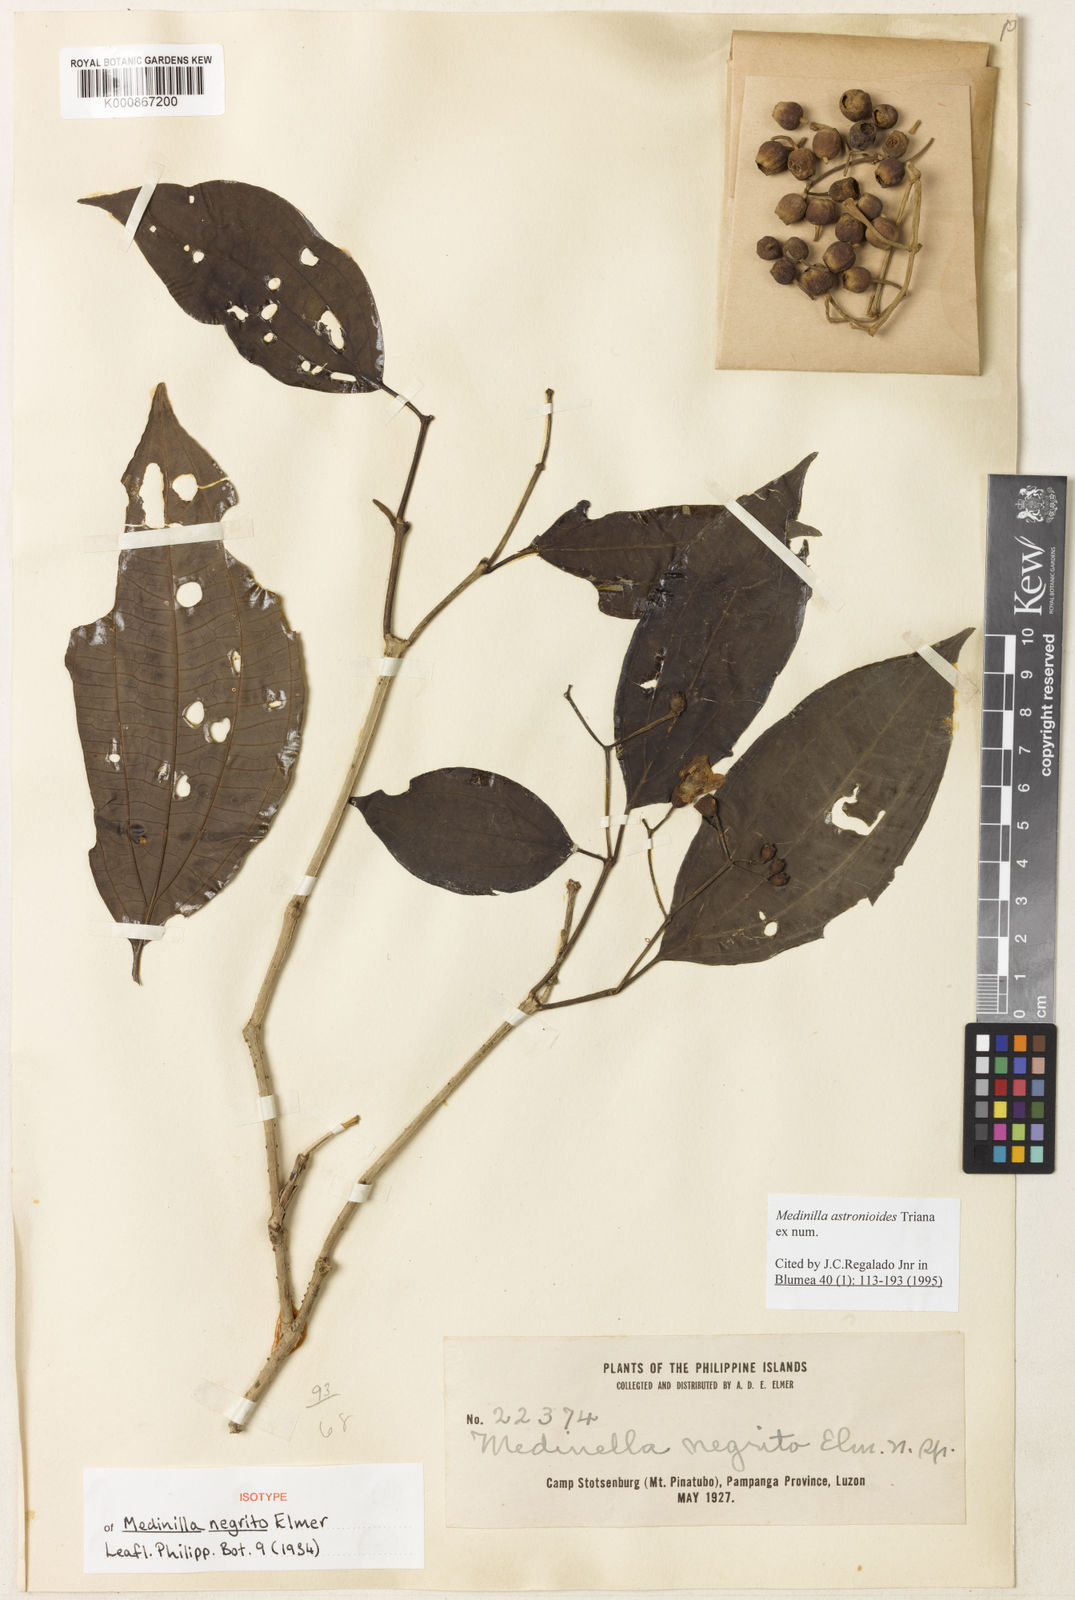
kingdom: Plantae
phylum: Tracheophyta
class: Magnoliopsida
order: Myrtales
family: Melastomataceae
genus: Medinilla
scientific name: Medinilla astronioides
